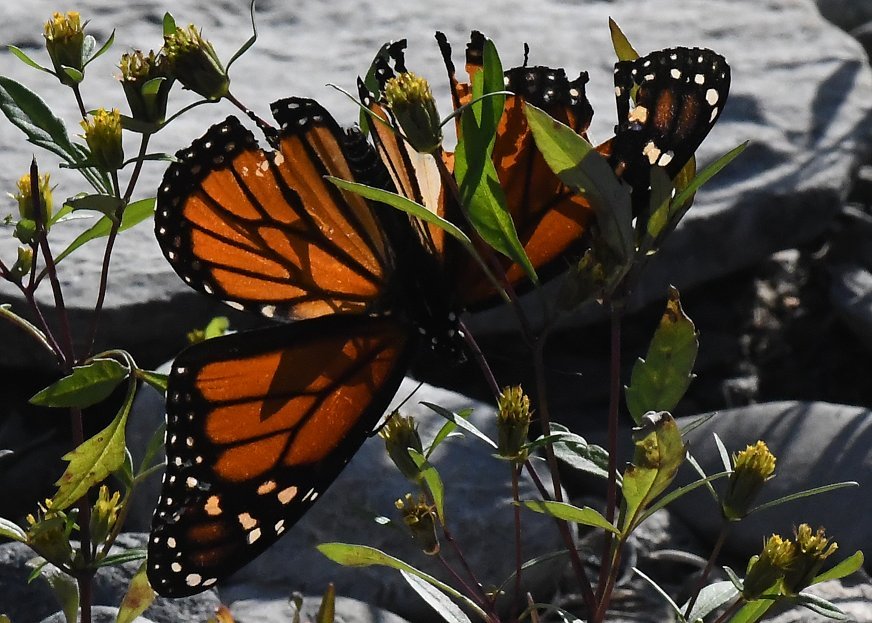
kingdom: Animalia
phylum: Arthropoda
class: Insecta
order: Lepidoptera
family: Nymphalidae
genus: Danaus
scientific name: Danaus plexippus
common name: Monarch
